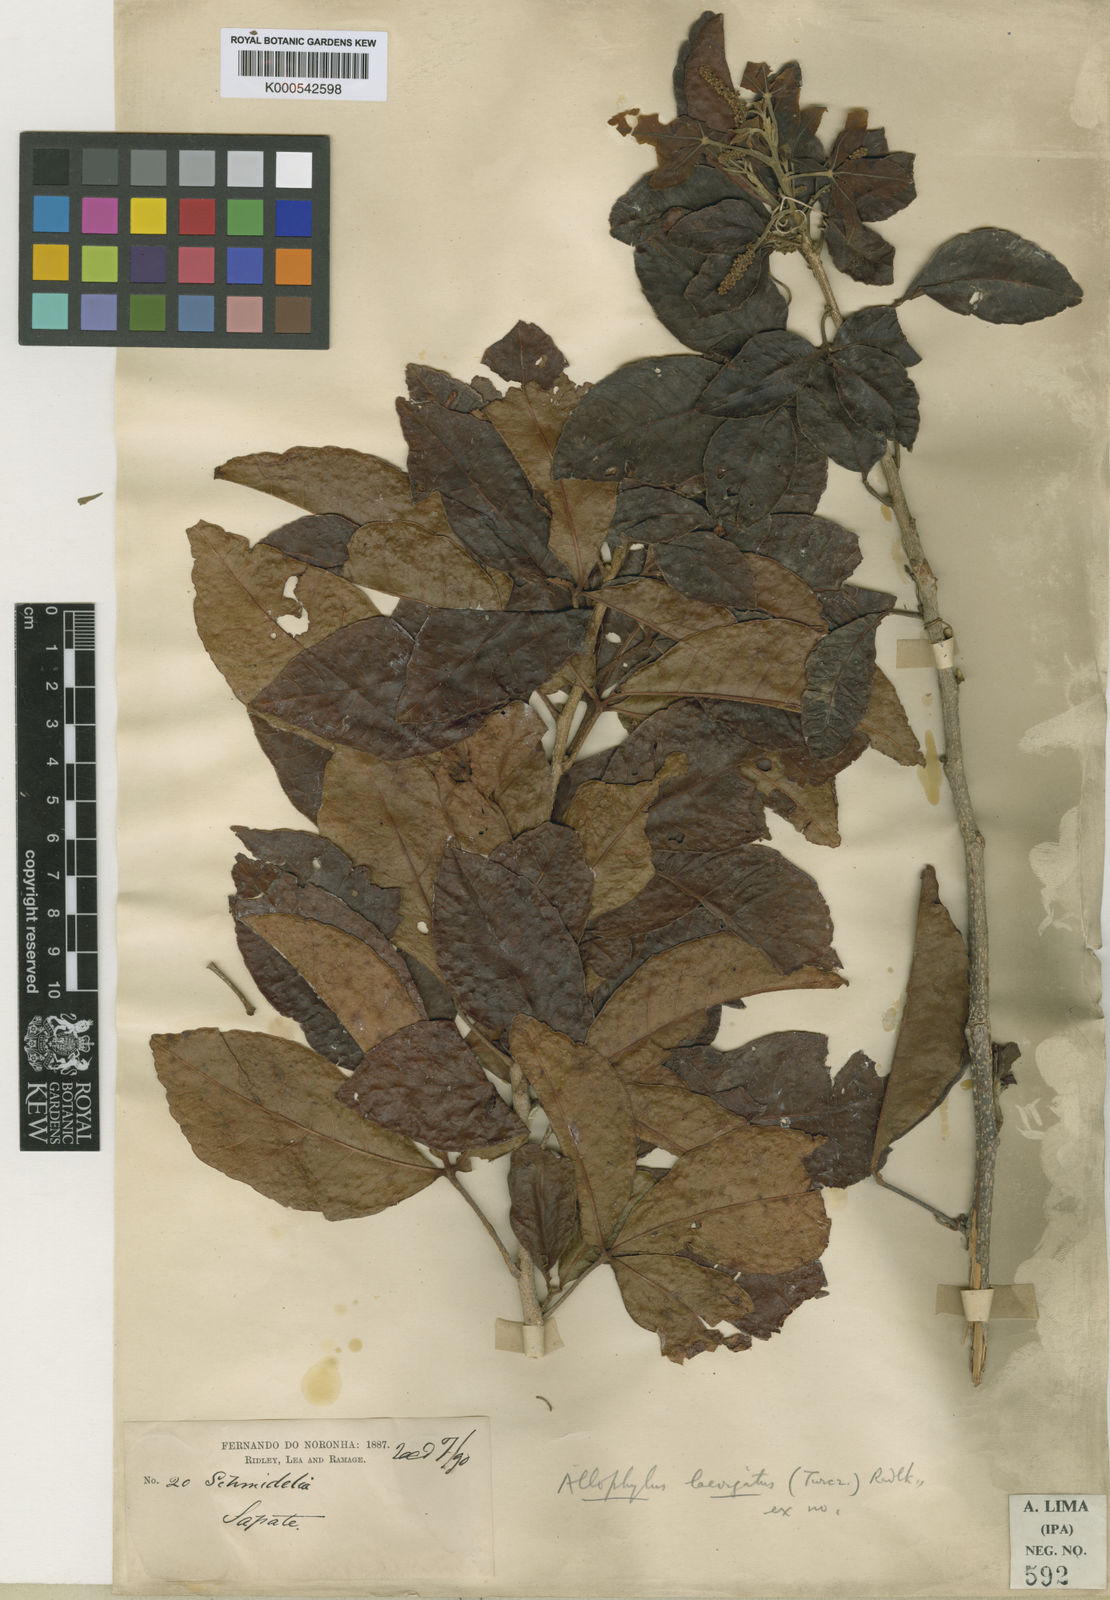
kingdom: Plantae
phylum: Tracheophyta
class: Magnoliopsida
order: Sapindales
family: Sapindaceae
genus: Allophylus
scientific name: Allophylus laevigatus
